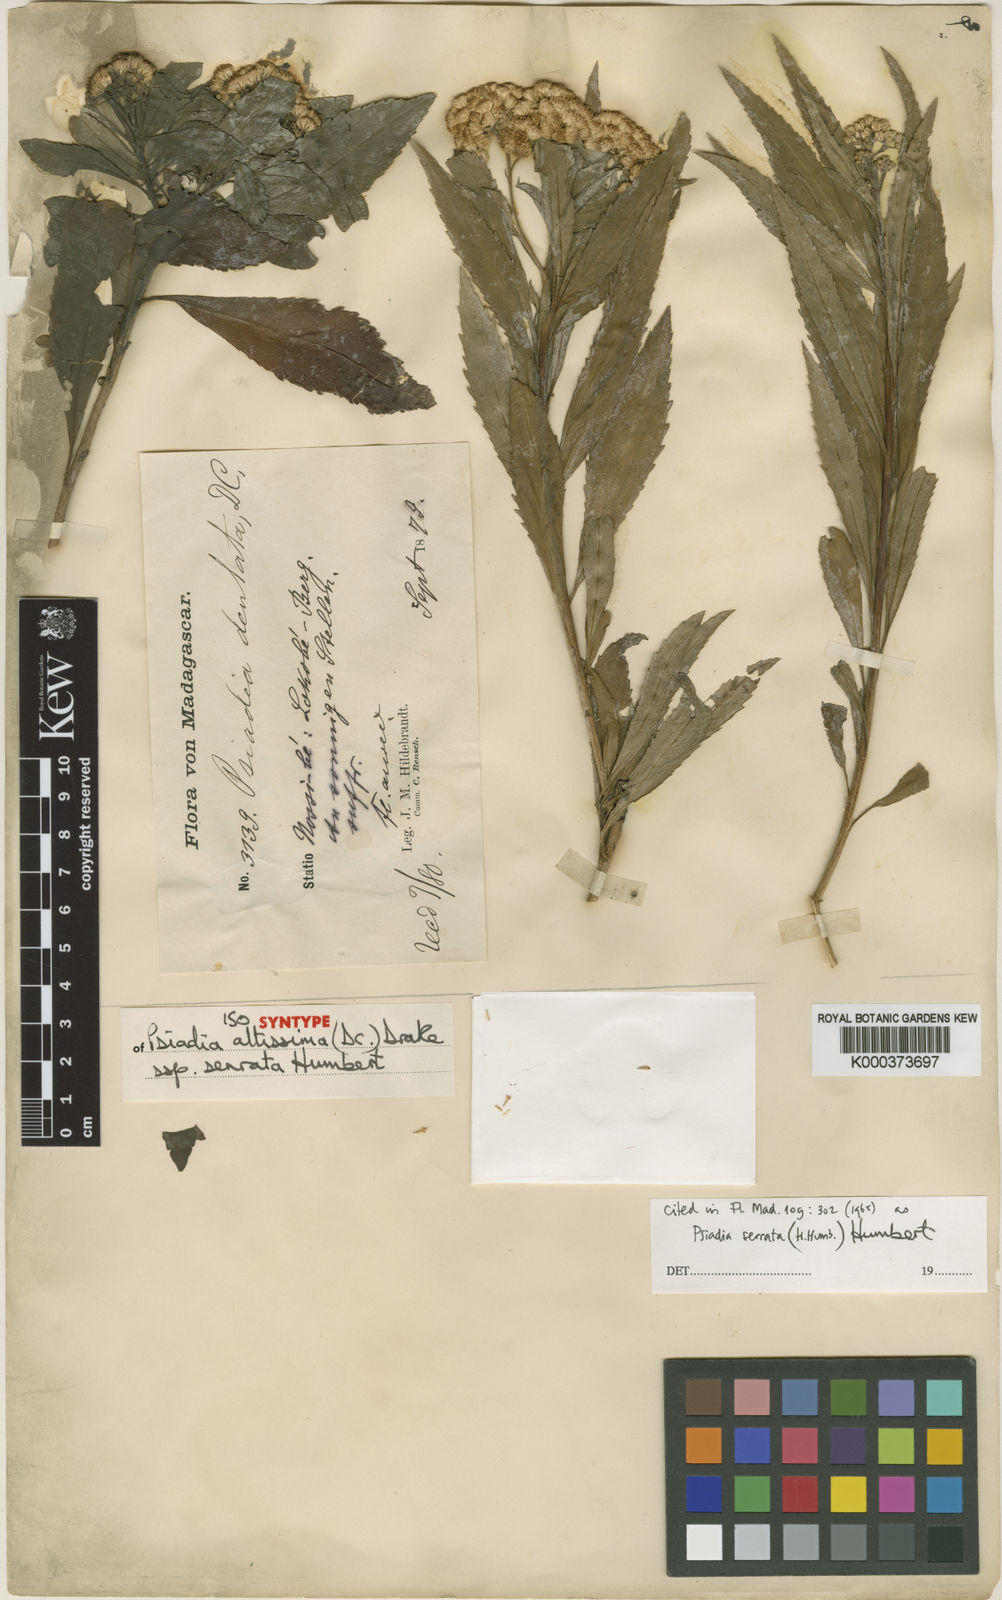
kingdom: Plantae
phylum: Tracheophyta
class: Magnoliopsida
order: Asterales
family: Asteraceae
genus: Psiadia
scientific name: Psiadia serrata
